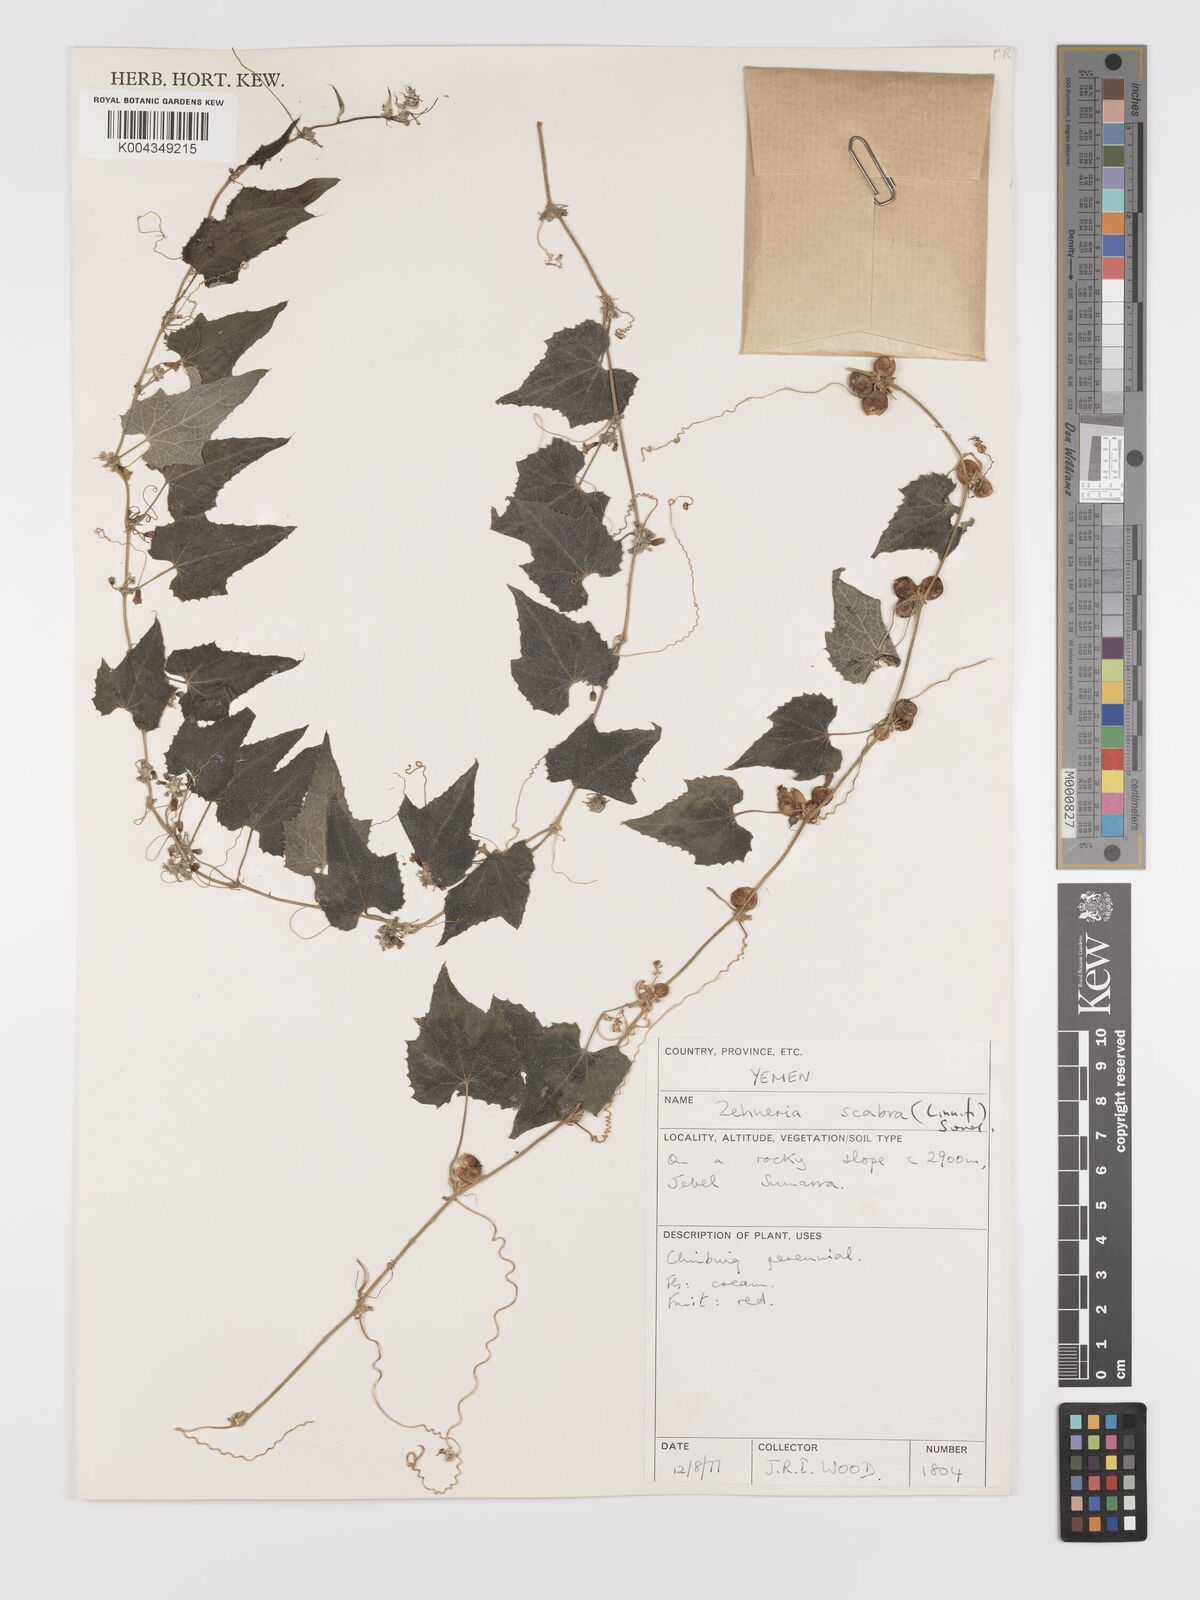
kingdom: Plantae
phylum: Tracheophyta
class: Magnoliopsida
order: Cucurbitales
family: Cucurbitaceae
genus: Zehneria
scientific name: Zehneria scabra
